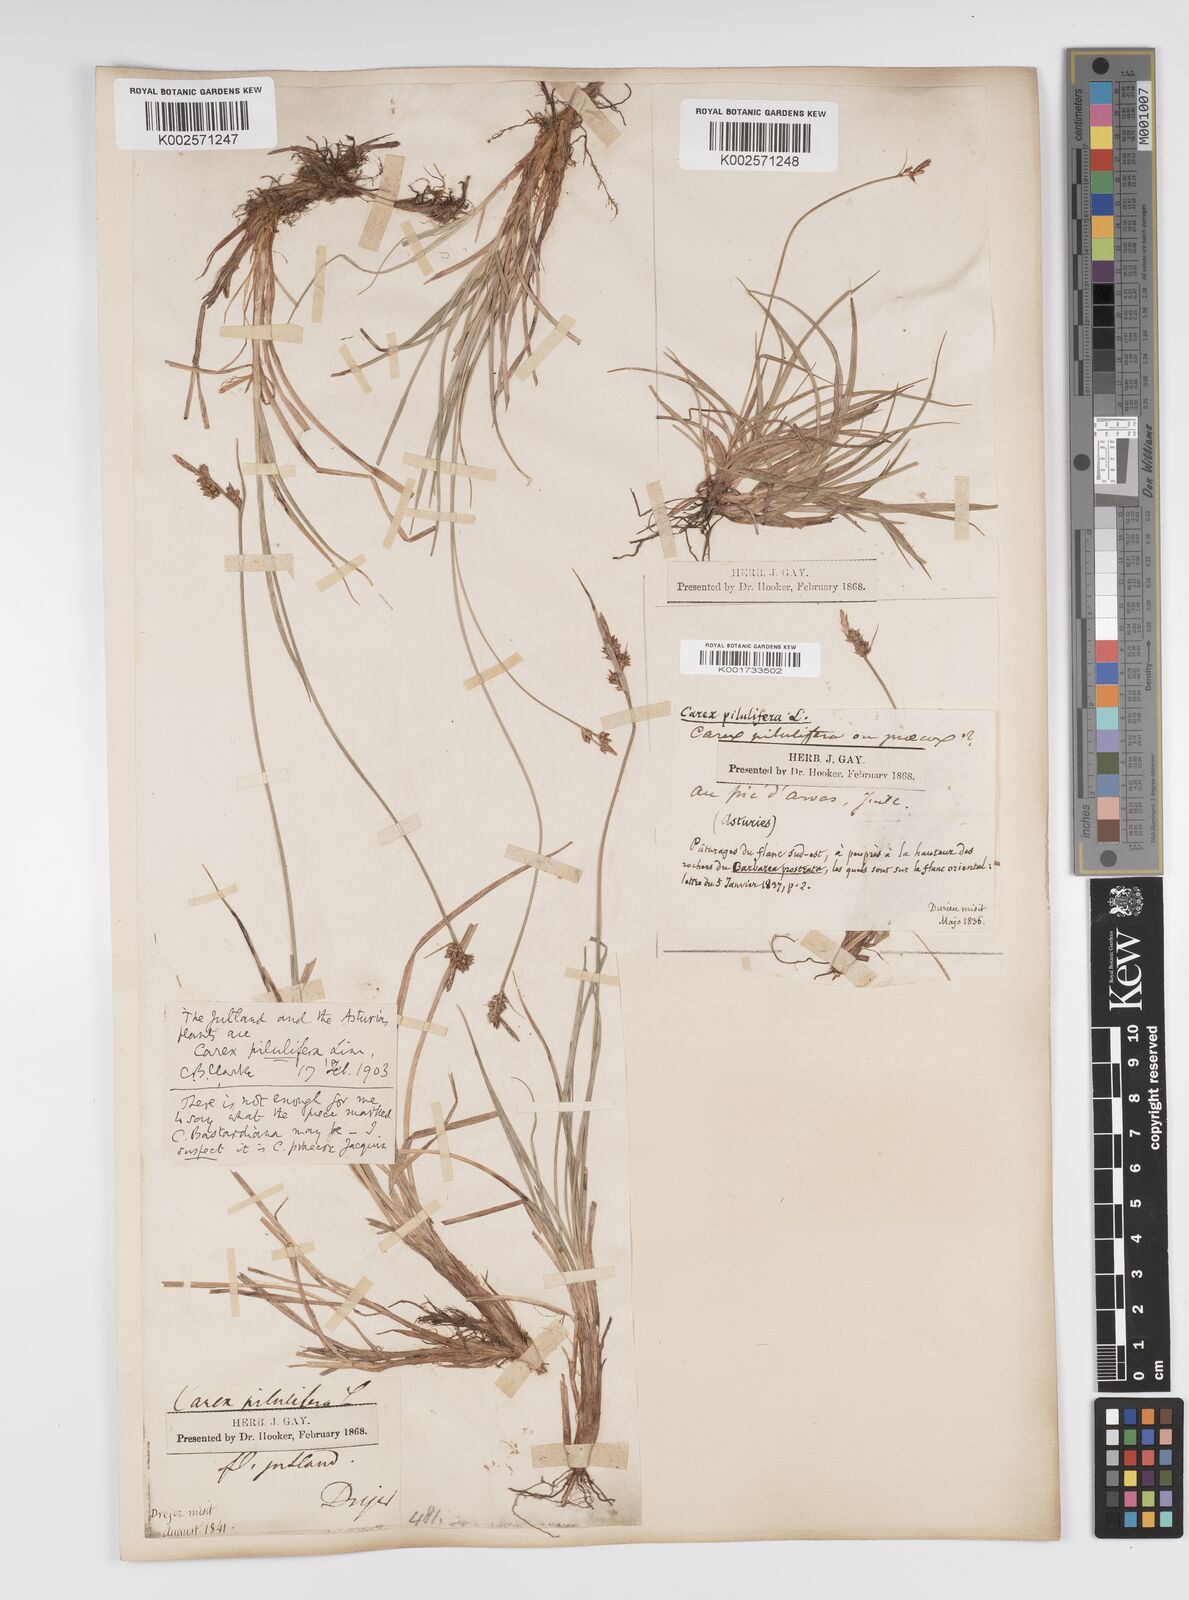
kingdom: Plantae
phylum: Tracheophyta
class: Liliopsida
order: Poales
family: Cyperaceae
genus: Carex
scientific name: Carex pilulifera
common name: Pill sedge
